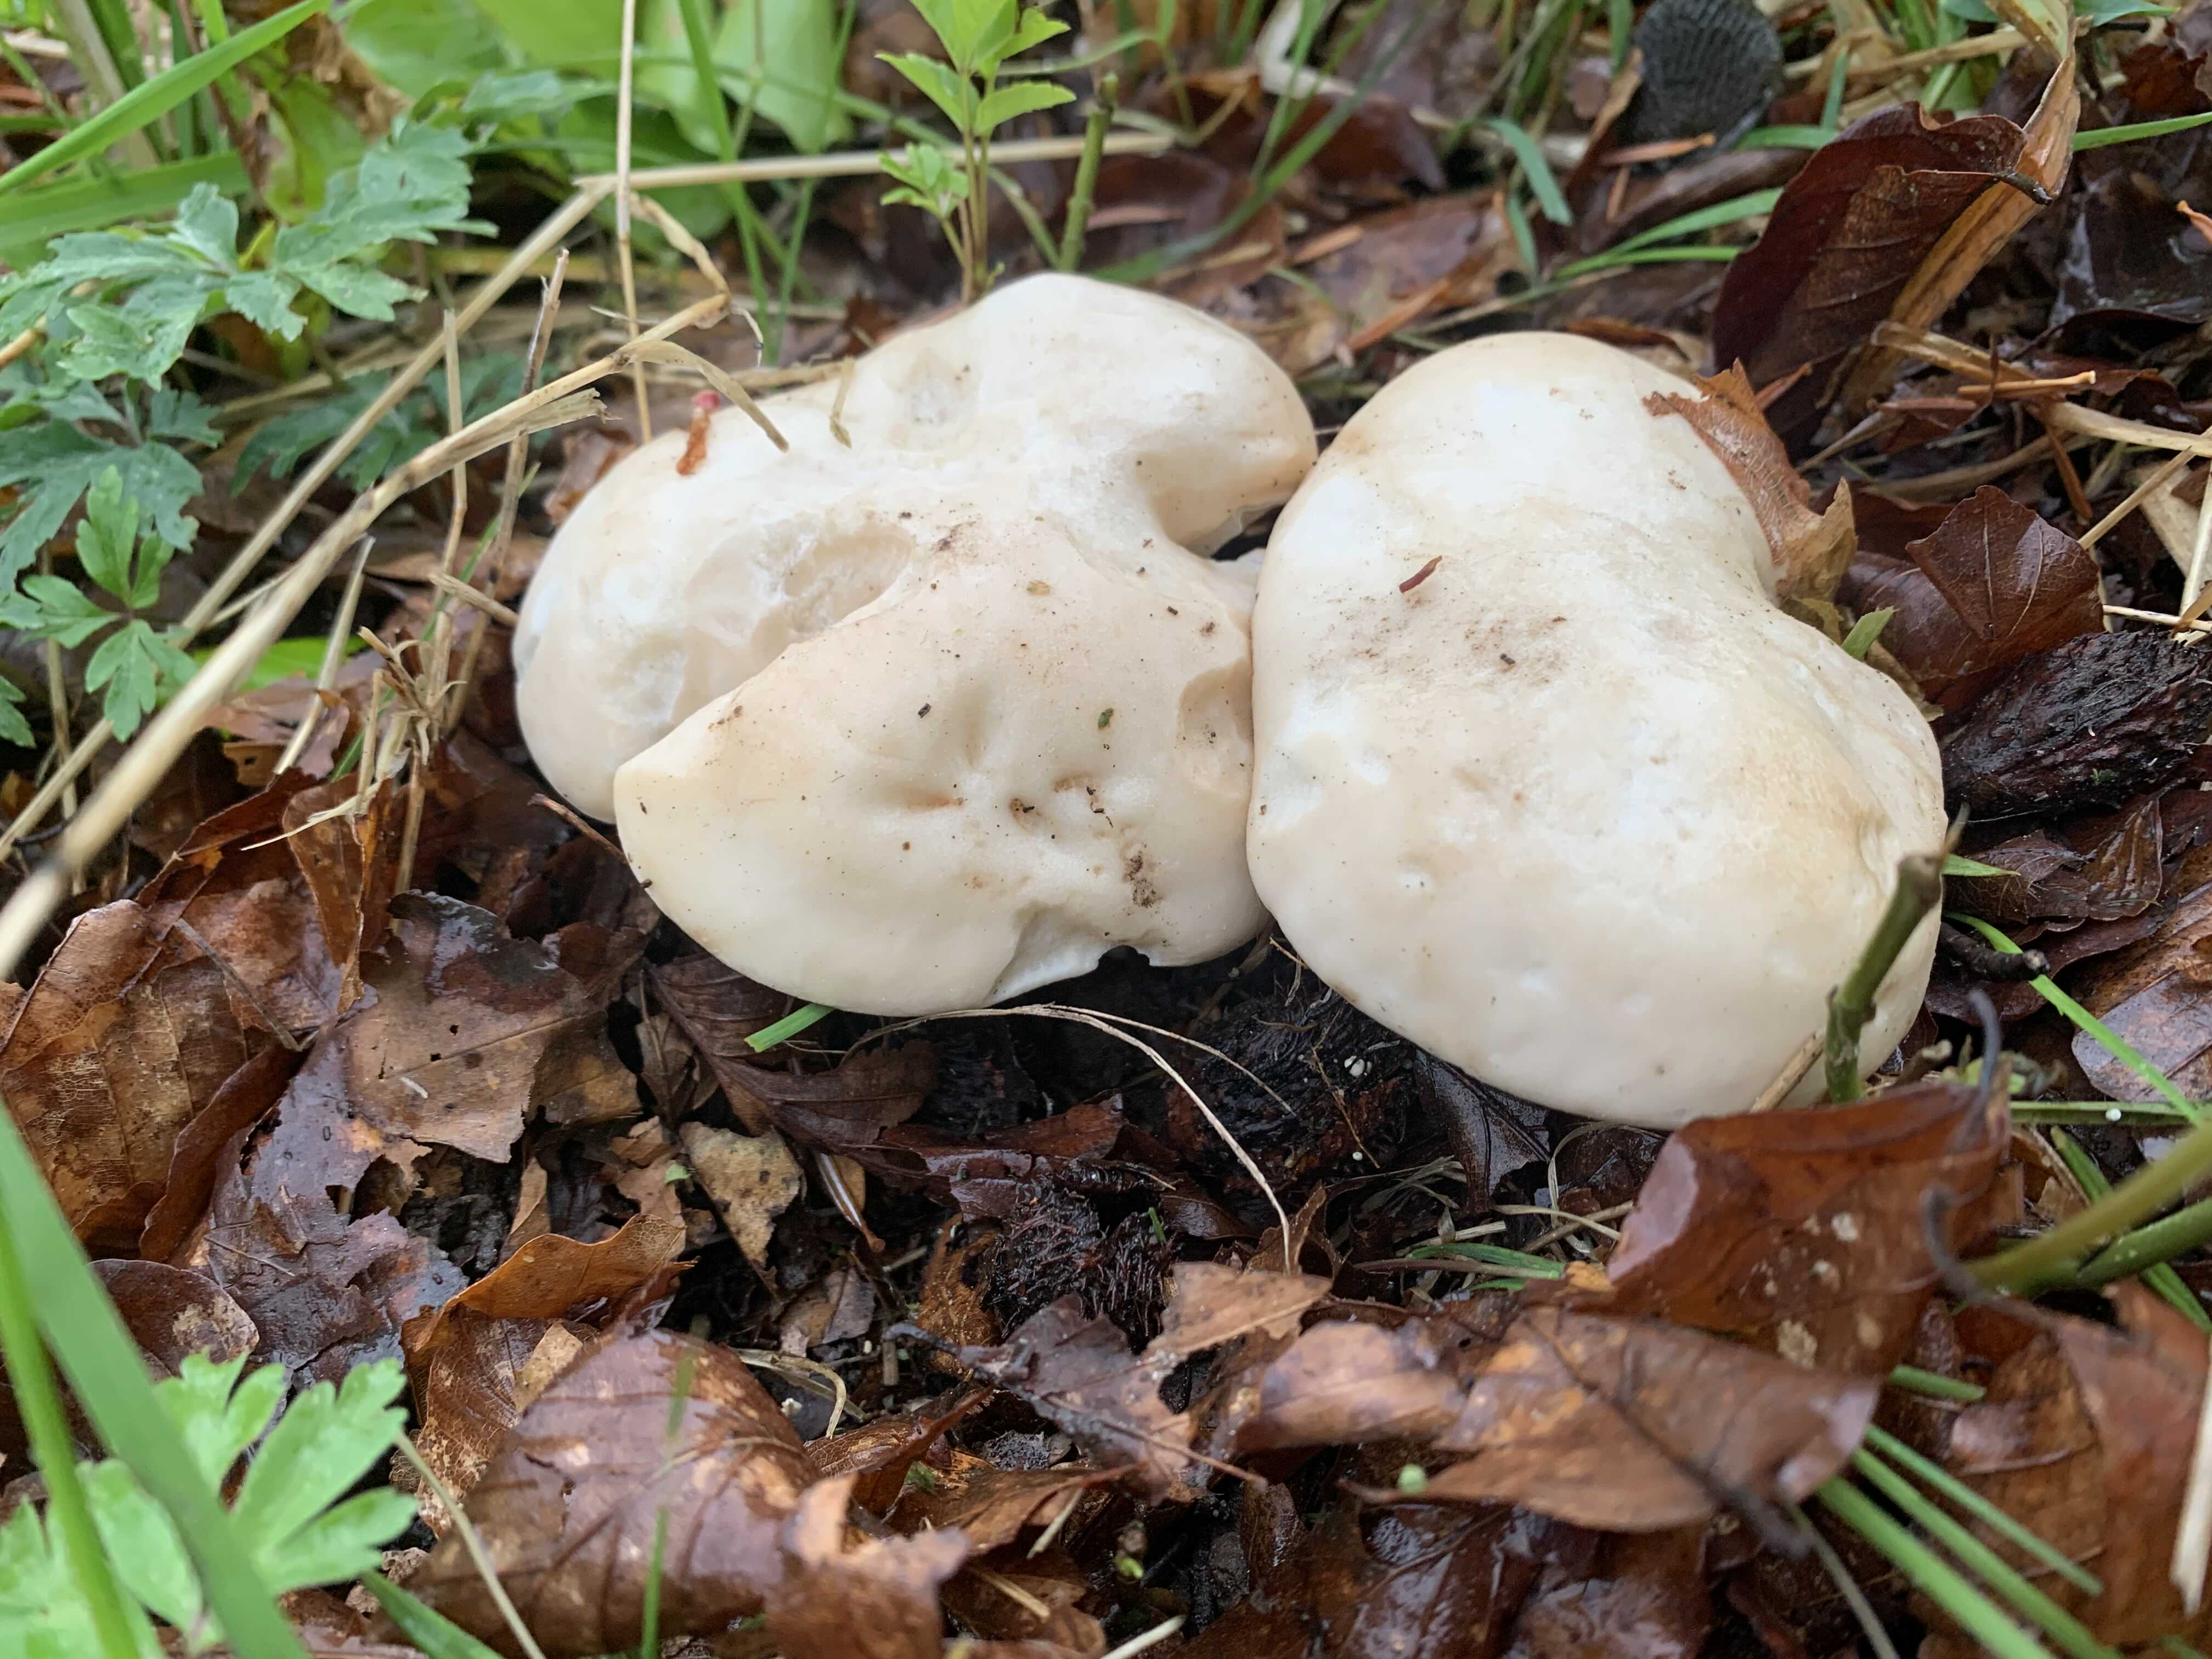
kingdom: Fungi
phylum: Basidiomycota
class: Agaricomycetes
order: Agaricales
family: Lyophyllaceae
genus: Calocybe
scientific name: Calocybe gambosa
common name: vårmusseron
